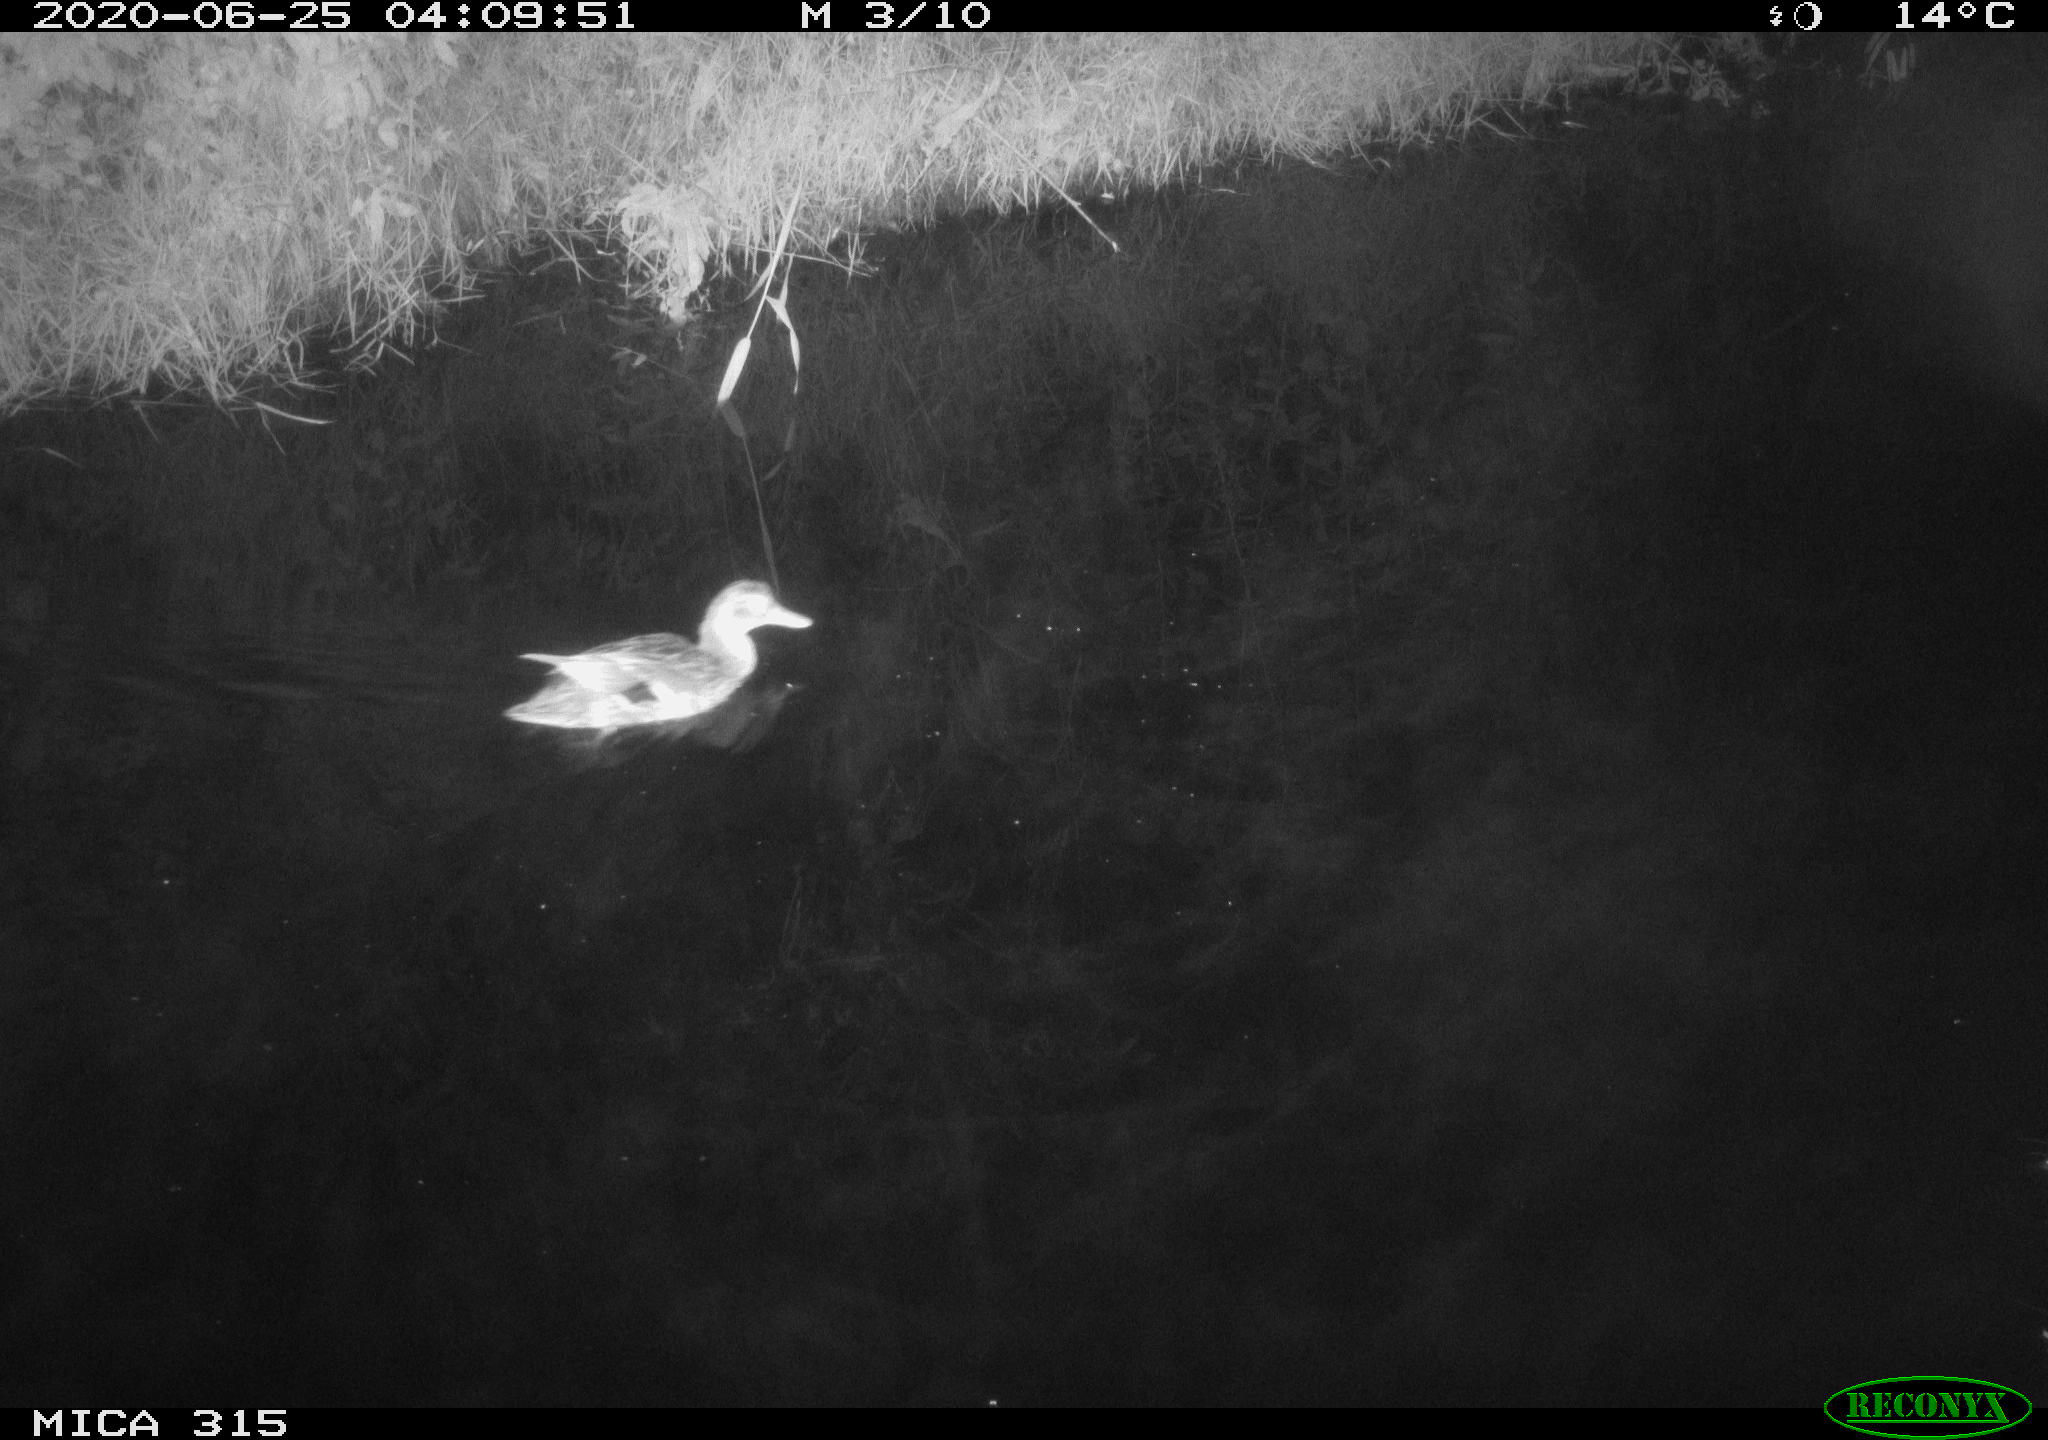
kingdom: Animalia
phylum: Chordata
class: Aves
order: Anseriformes
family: Anatidae
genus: Anas
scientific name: Anas platyrhynchos
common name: Mallard
